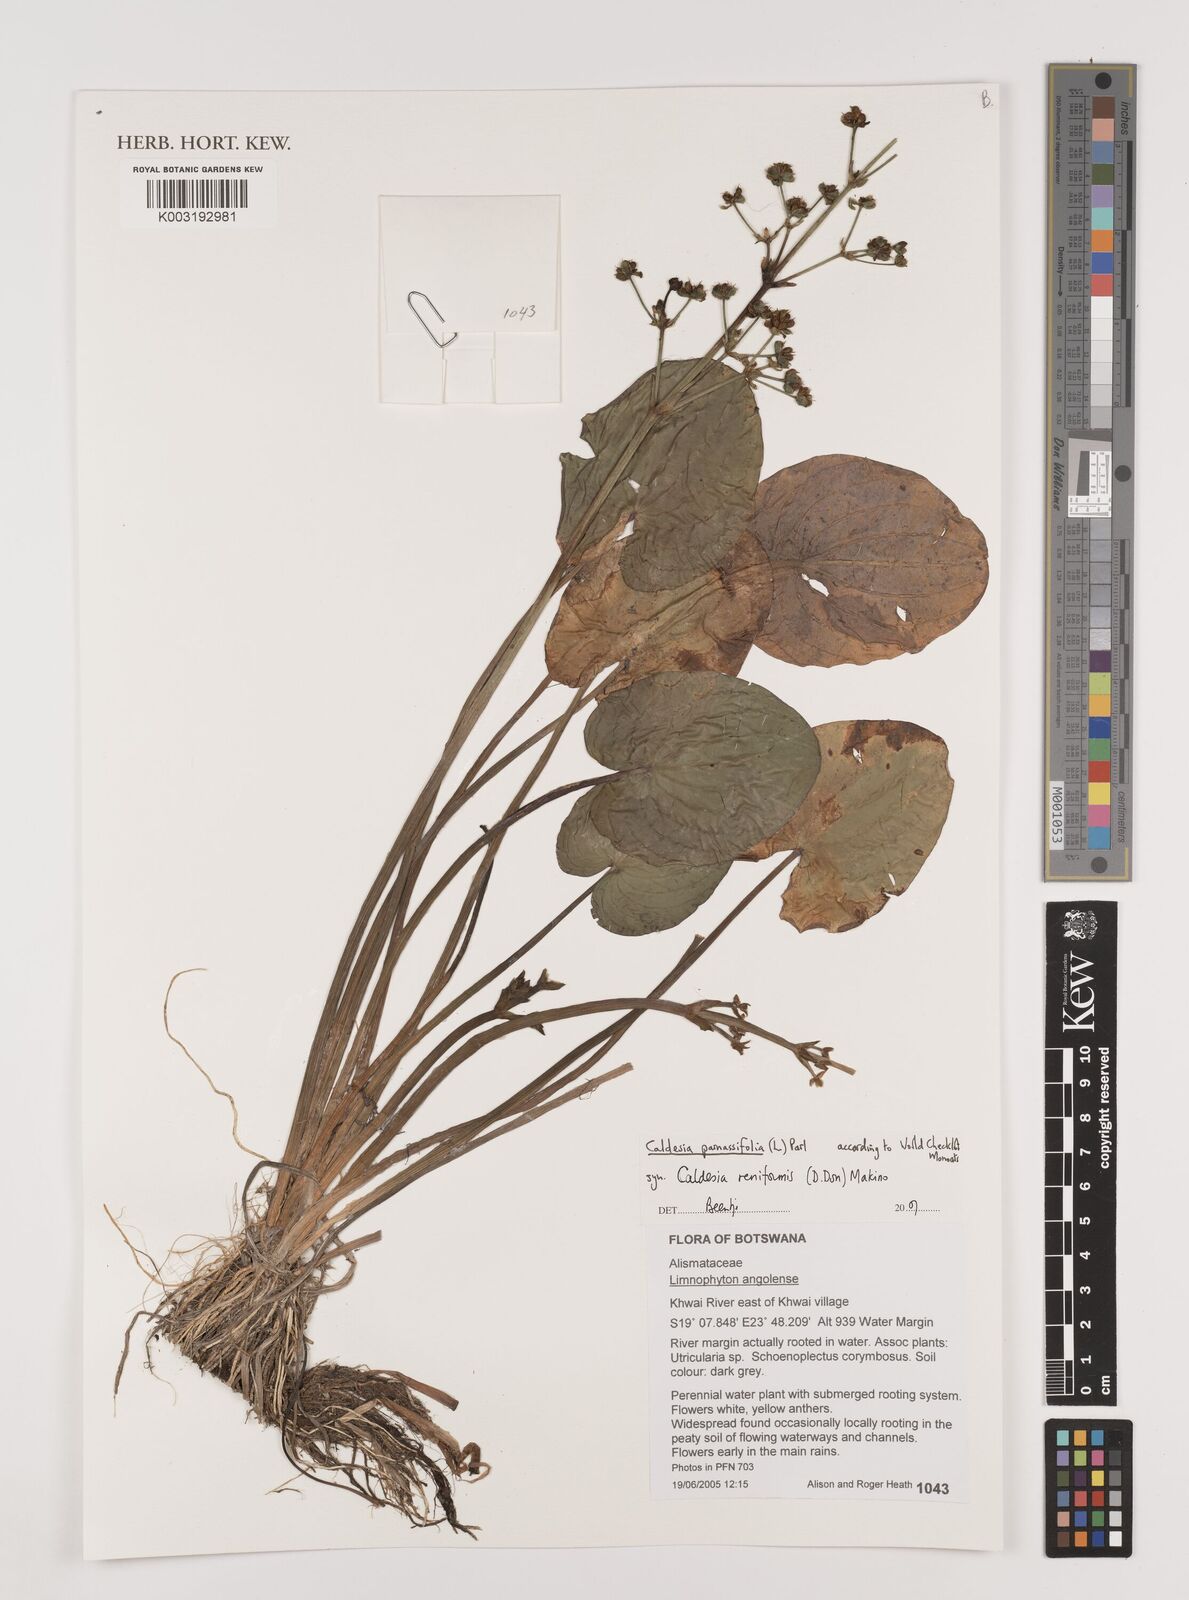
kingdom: Plantae
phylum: Tracheophyta
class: Liliopsida
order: Alismatales
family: Alismataceae
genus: Caldesia
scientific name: Caldesia parnassifolia
